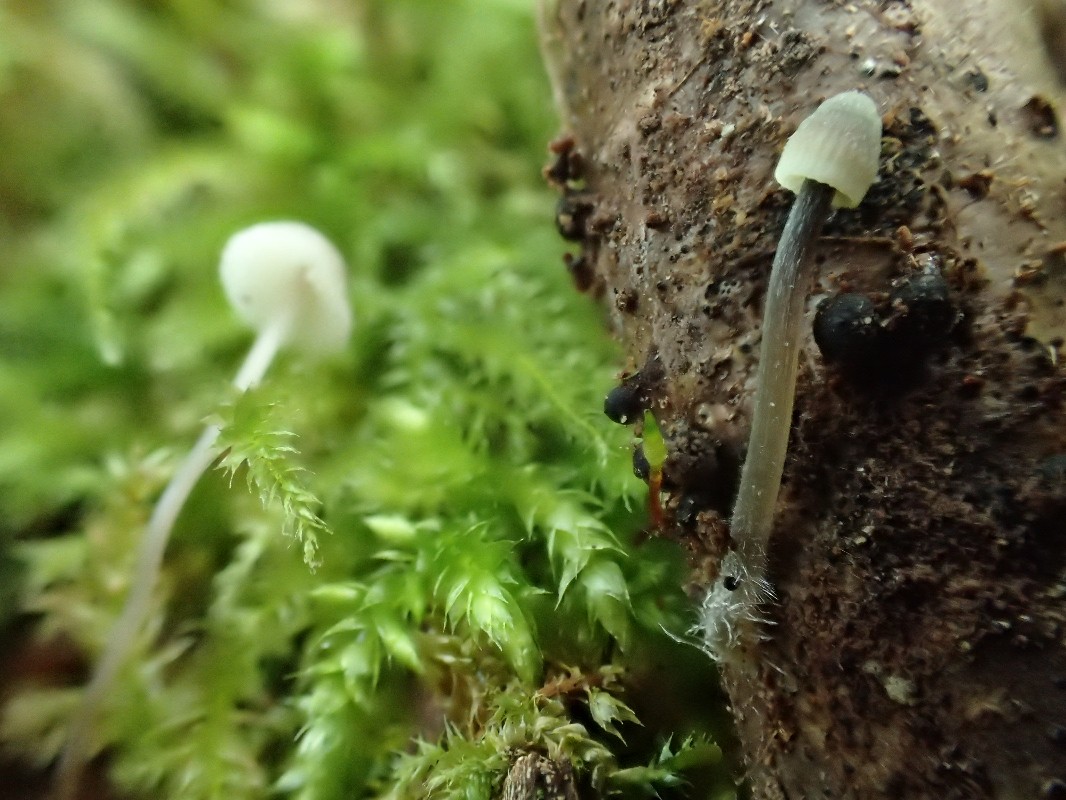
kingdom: Fungi
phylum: Basidiomycota
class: Agaricomycetes
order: Agaricales
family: Mycenaceae
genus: Mycena
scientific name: Mycena citrinomarginata
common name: gulægget huesvamp
